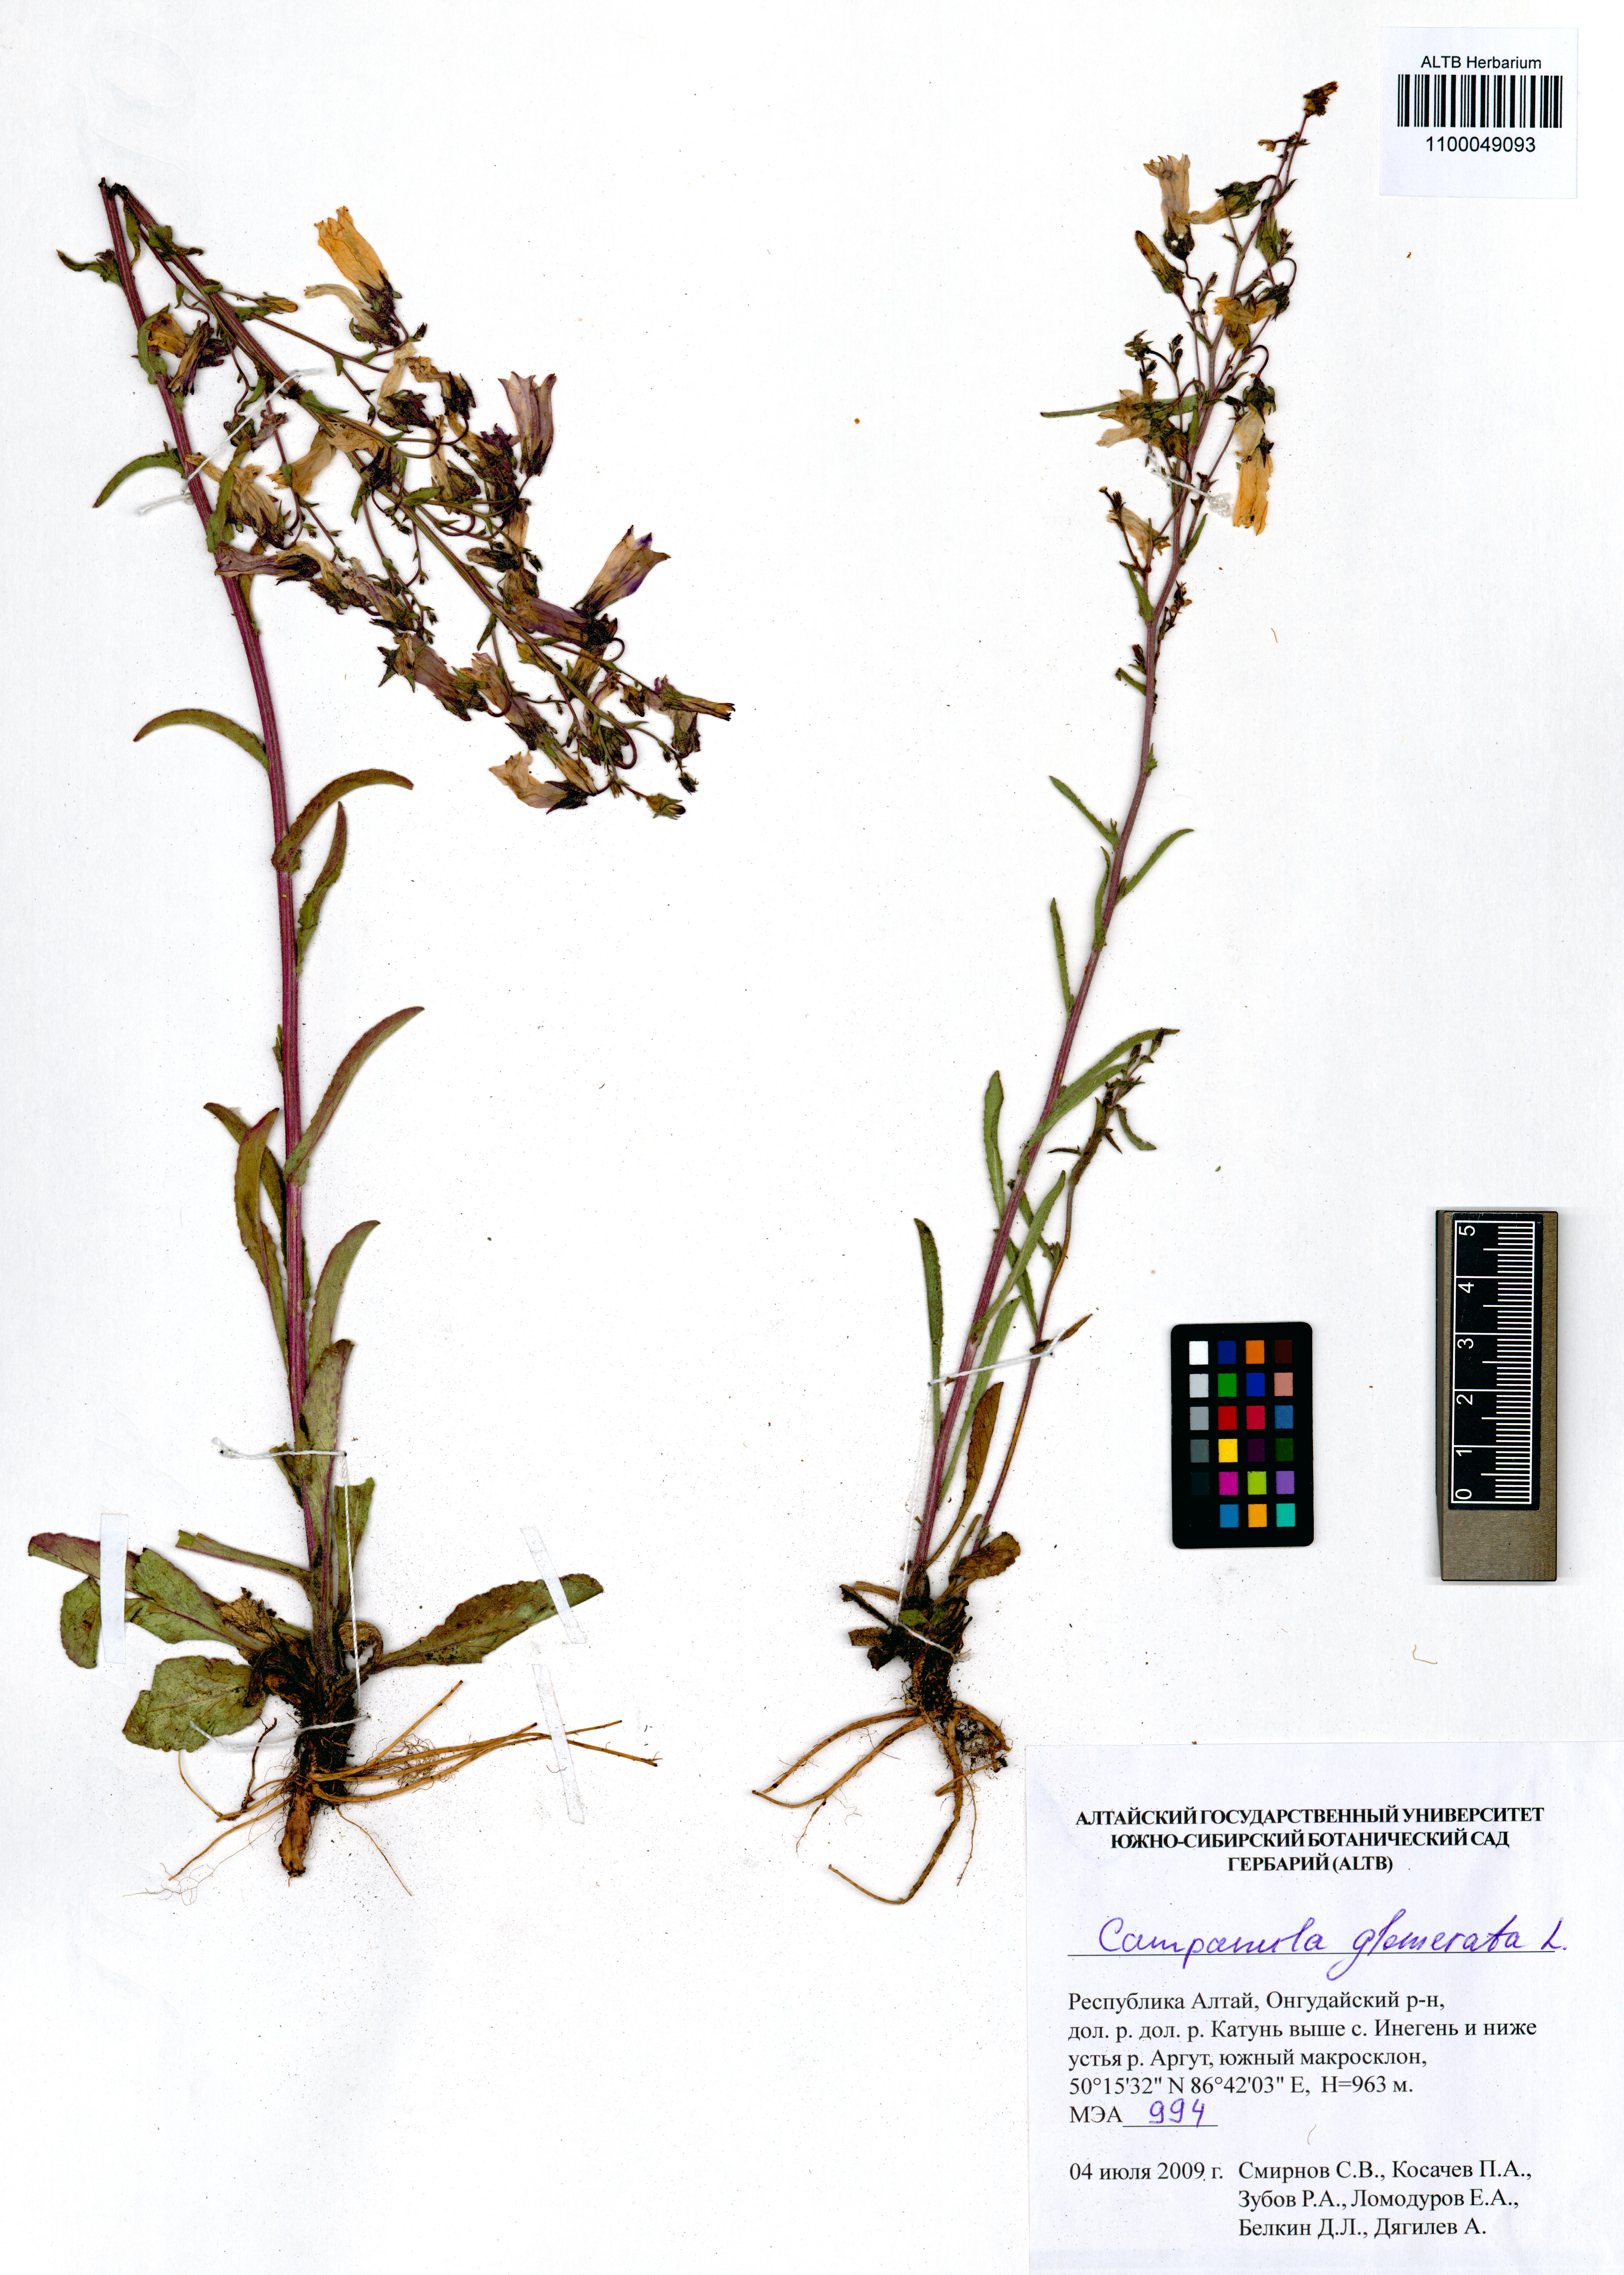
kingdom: Plantae
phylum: Tracheophyta
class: Magnoliopsida
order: Asterales
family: Campanulaceae
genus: Campanula
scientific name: Campanula sibirica
